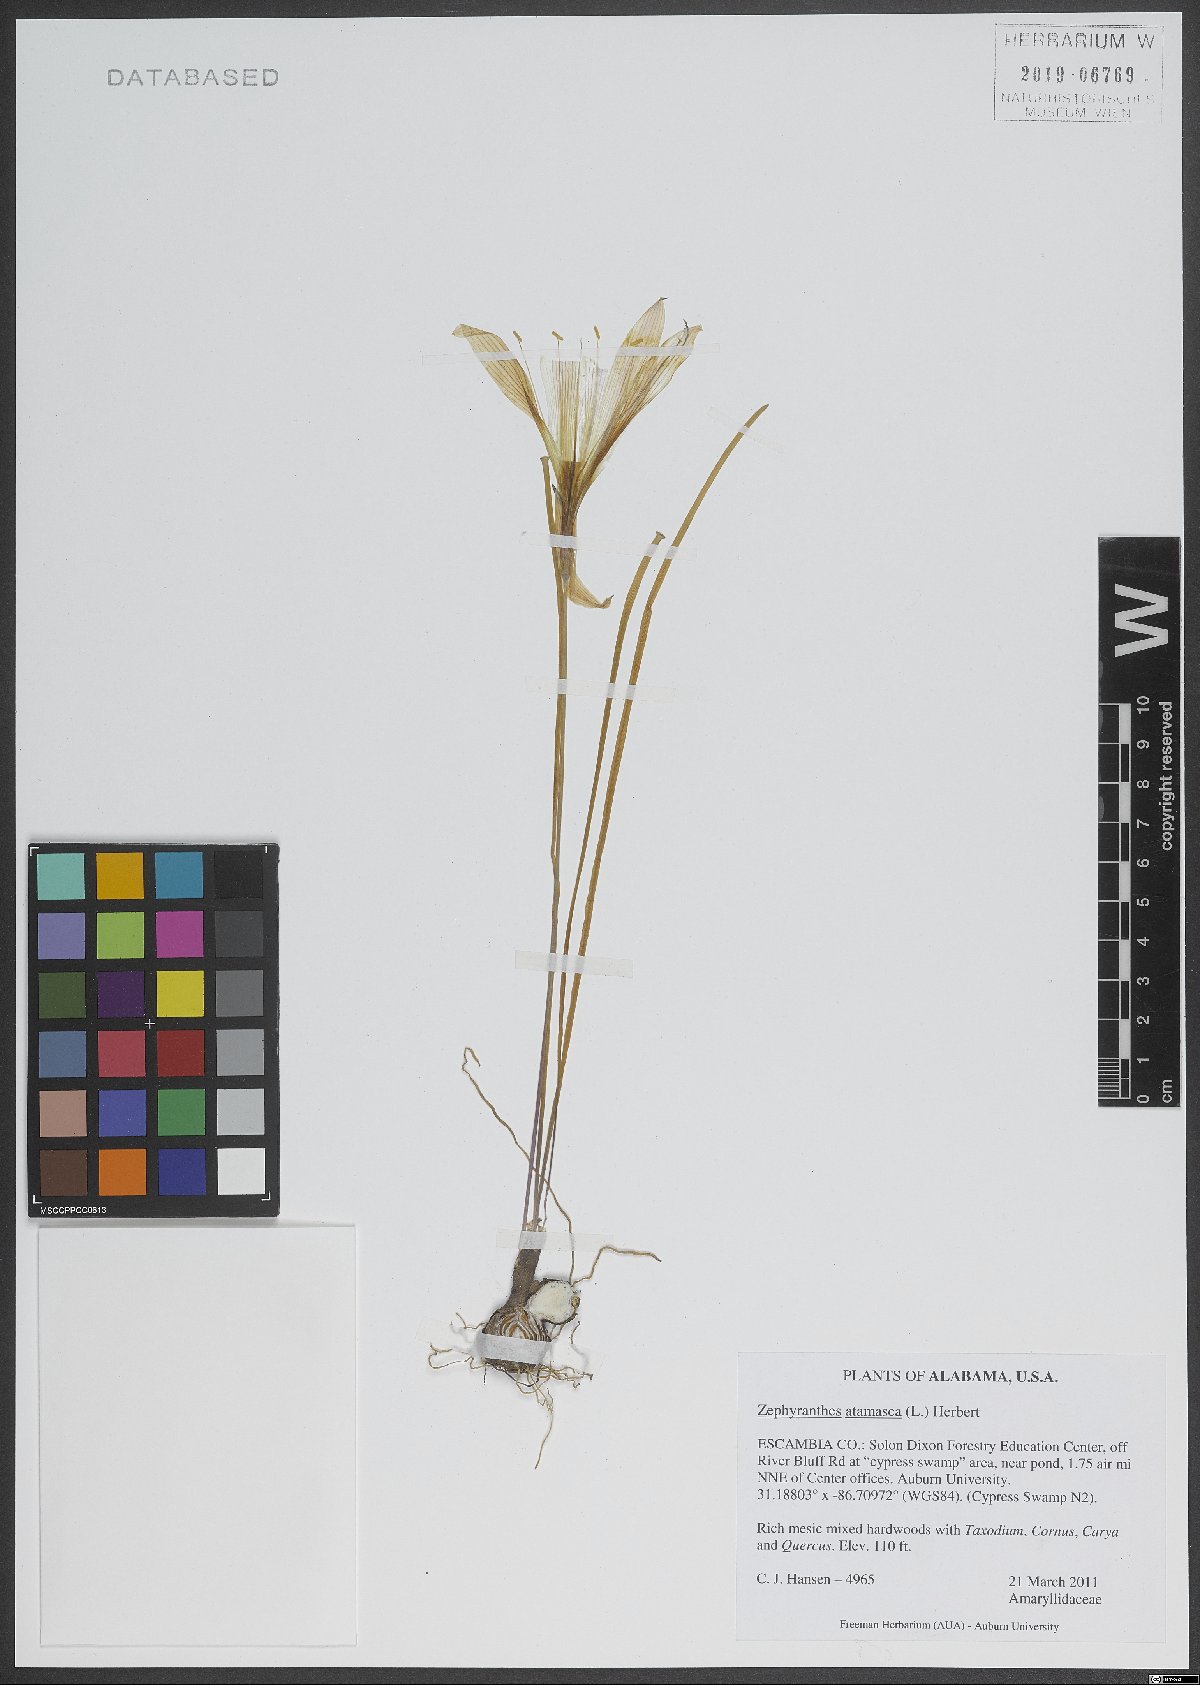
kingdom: Plantae
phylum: Tracheophyta
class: Liliopsida
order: Asparagales
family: Amaryllidaceae
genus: Zephyranthes
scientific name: Zephyranthes atamasco
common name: Atamasco lily
